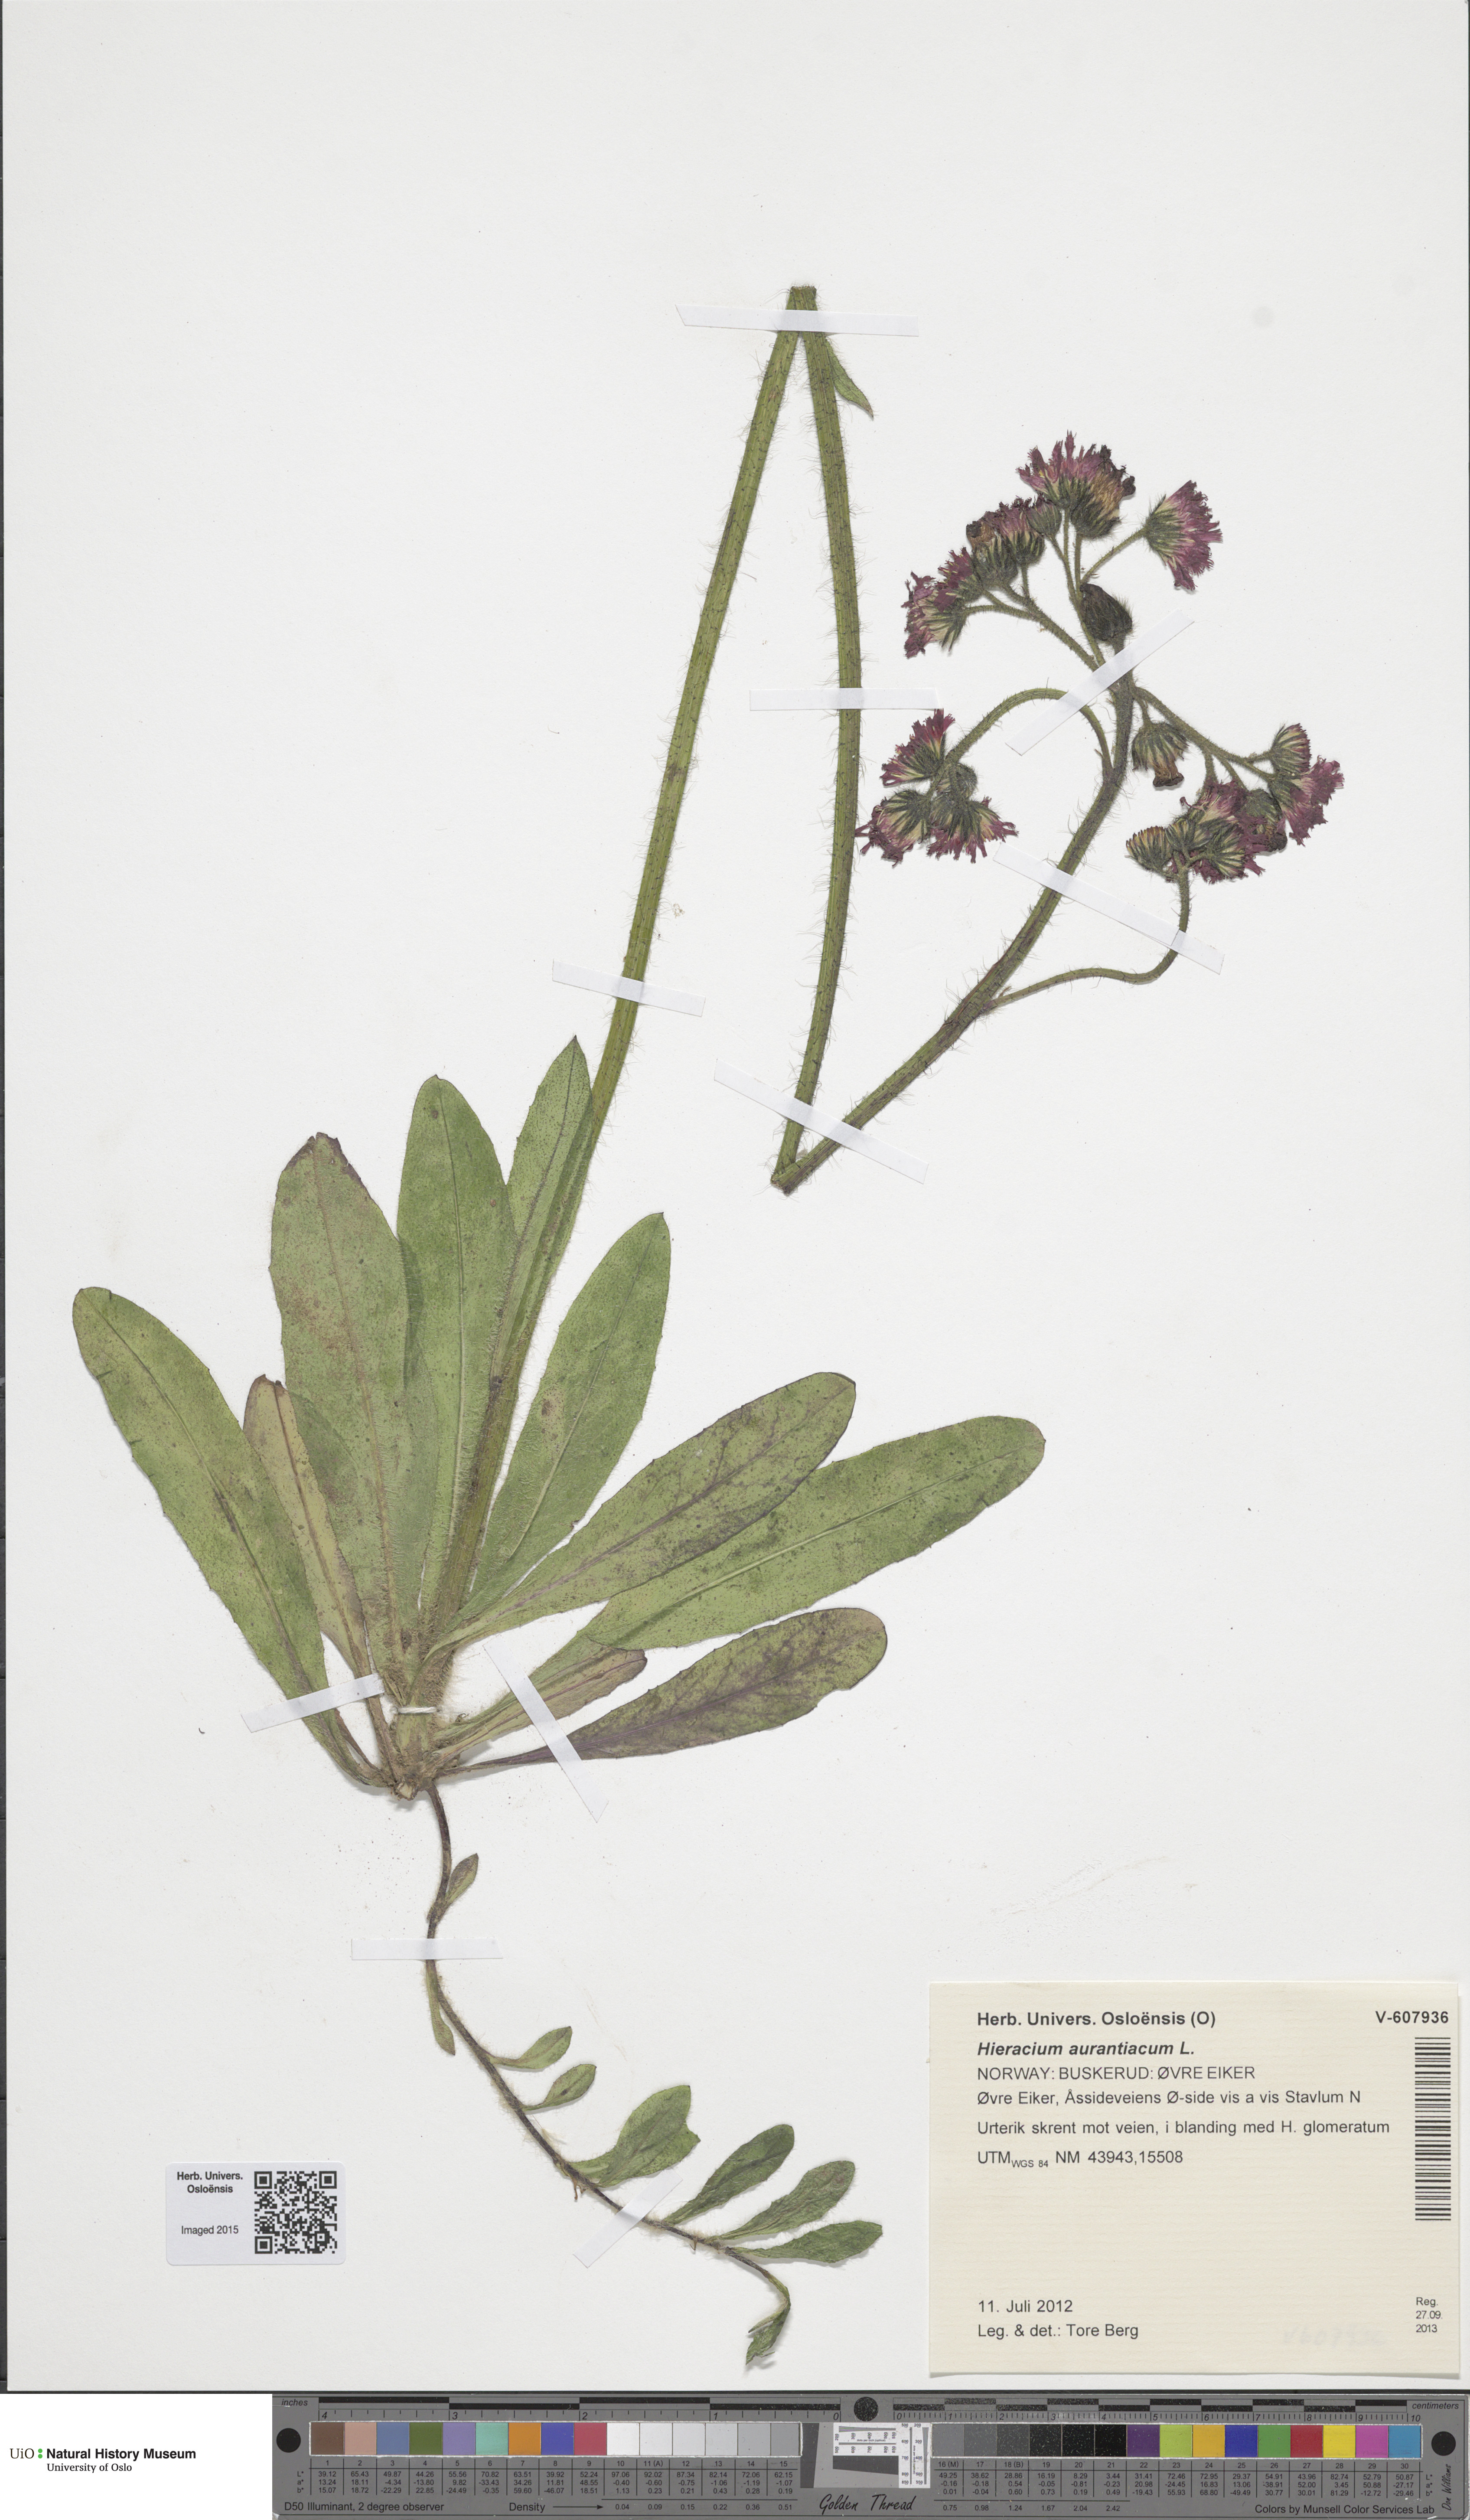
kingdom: Plantae
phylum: Tracheophyta
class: Magnoliopsida
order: Asterales
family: Asteraceae
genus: Pilosella
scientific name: Pilosella aurantiaca
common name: Fox-and-cubs
